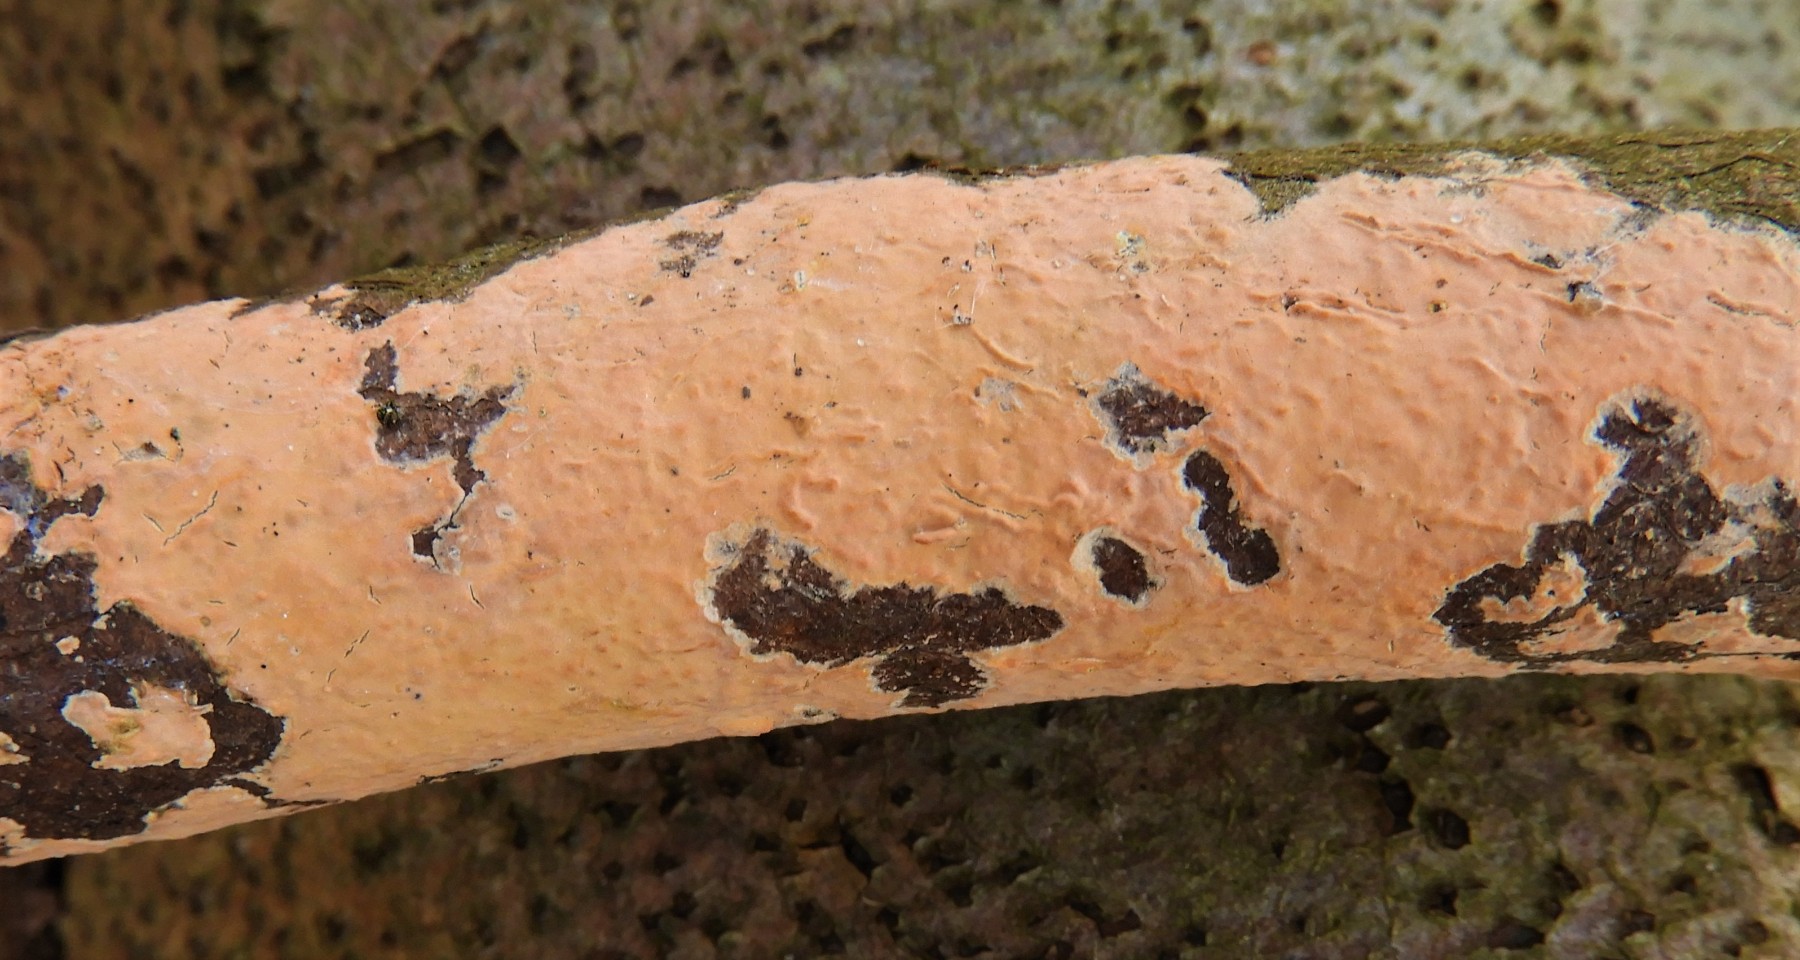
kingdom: Fungi
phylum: Basidiomycota
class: Agaricomycetes
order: Russulales
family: Peniophoraceae
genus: Peniophora
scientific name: Peniophora incarnata
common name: laksefarvet voksskind
